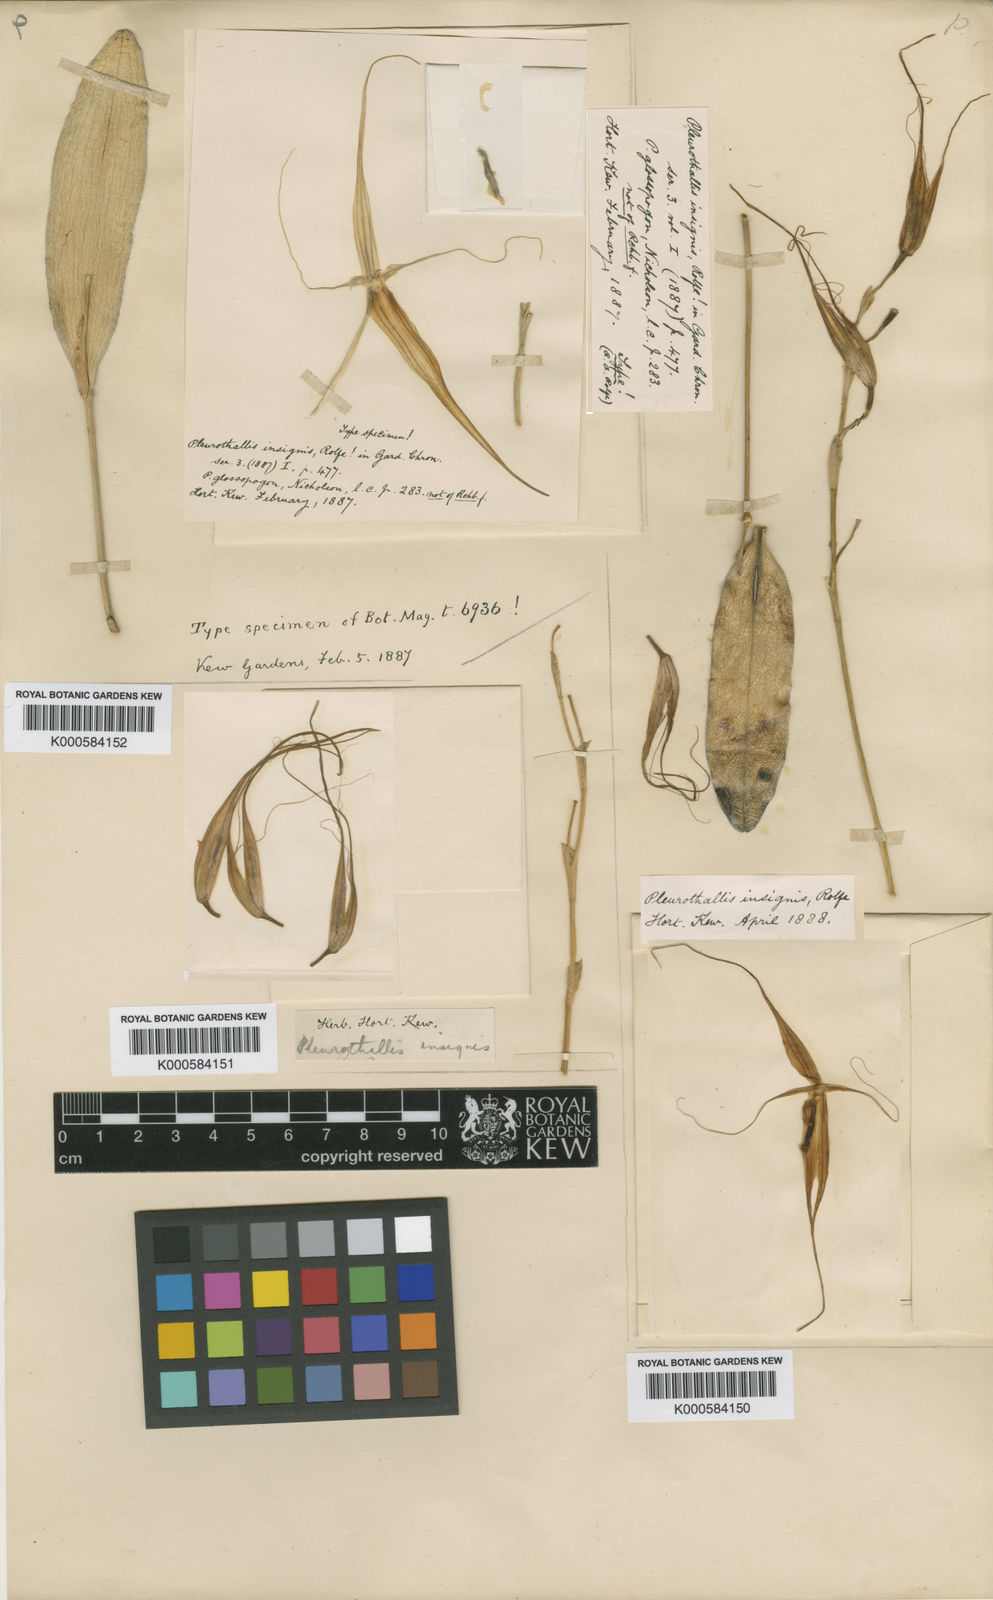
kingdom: Plantae
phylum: Tracheophyta
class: Liliopsida
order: Asparagales
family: Orchidaceae
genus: Pleurothallis
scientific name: Pleurothallis glossopogon
